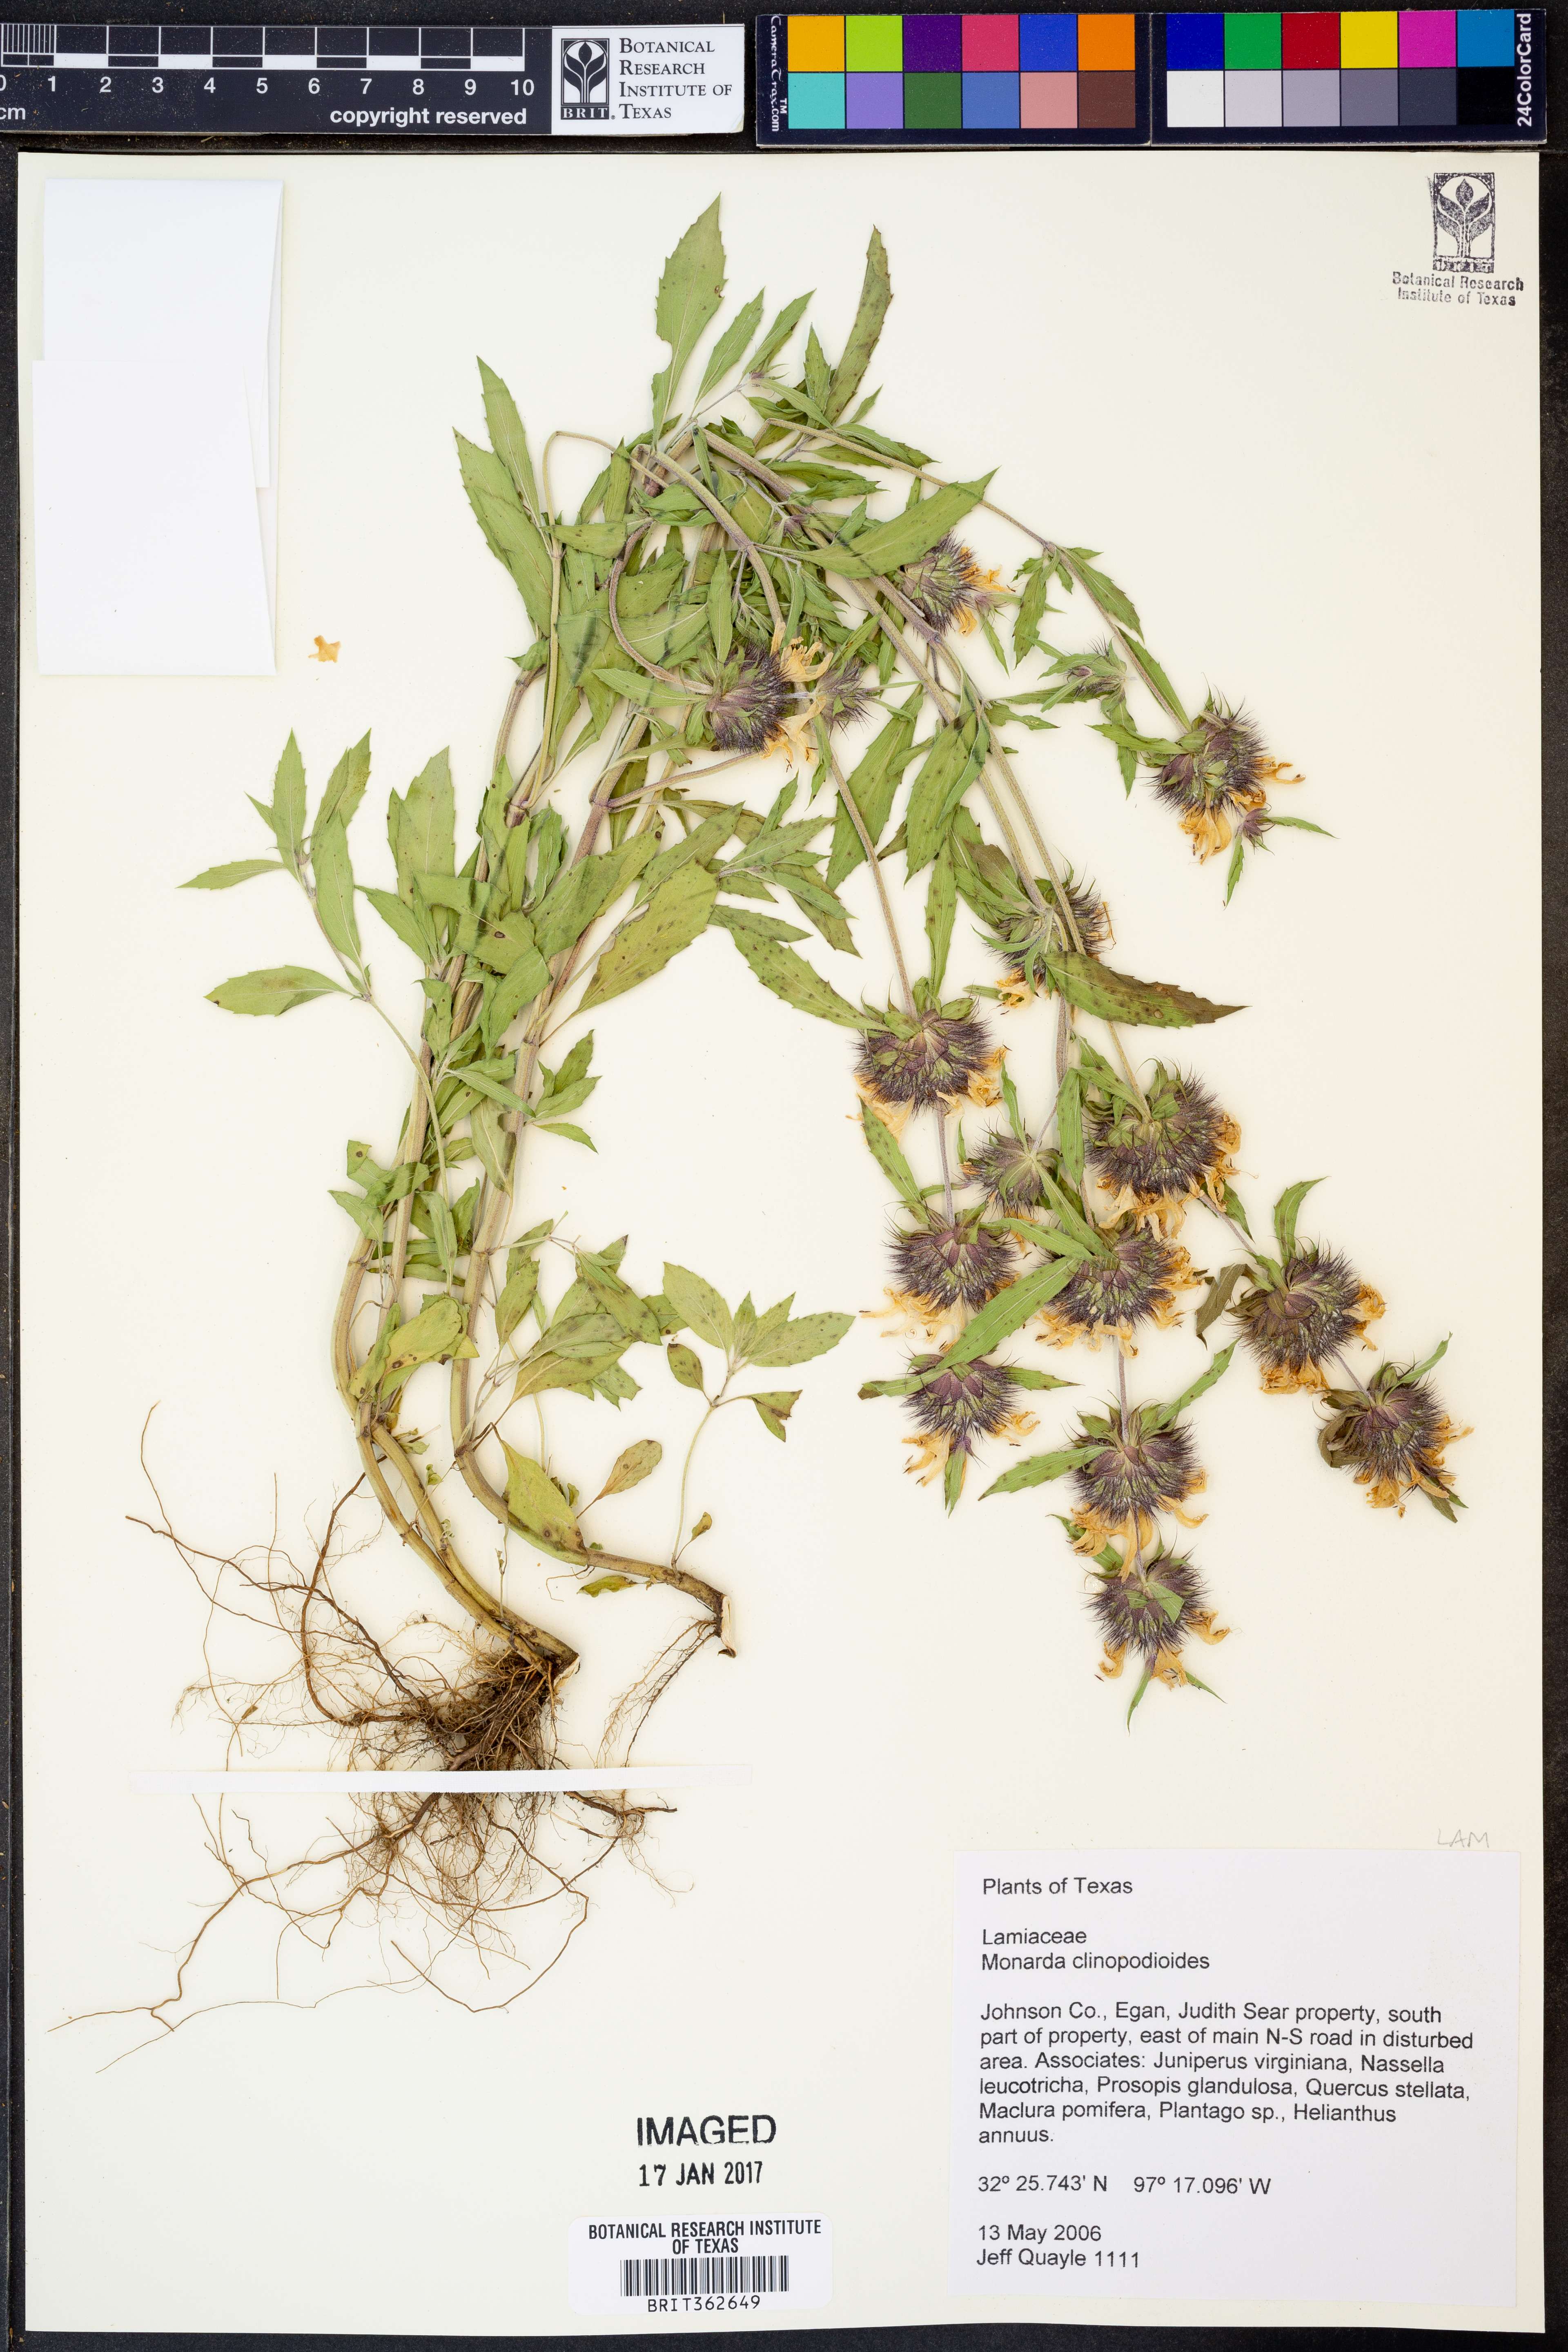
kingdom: Plantae
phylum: Tracheophyta
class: Magnoliopsida
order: Lamiales
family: Lamiaceae
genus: Monarda
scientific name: Monarda clinopodioides
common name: Basil beebalm
